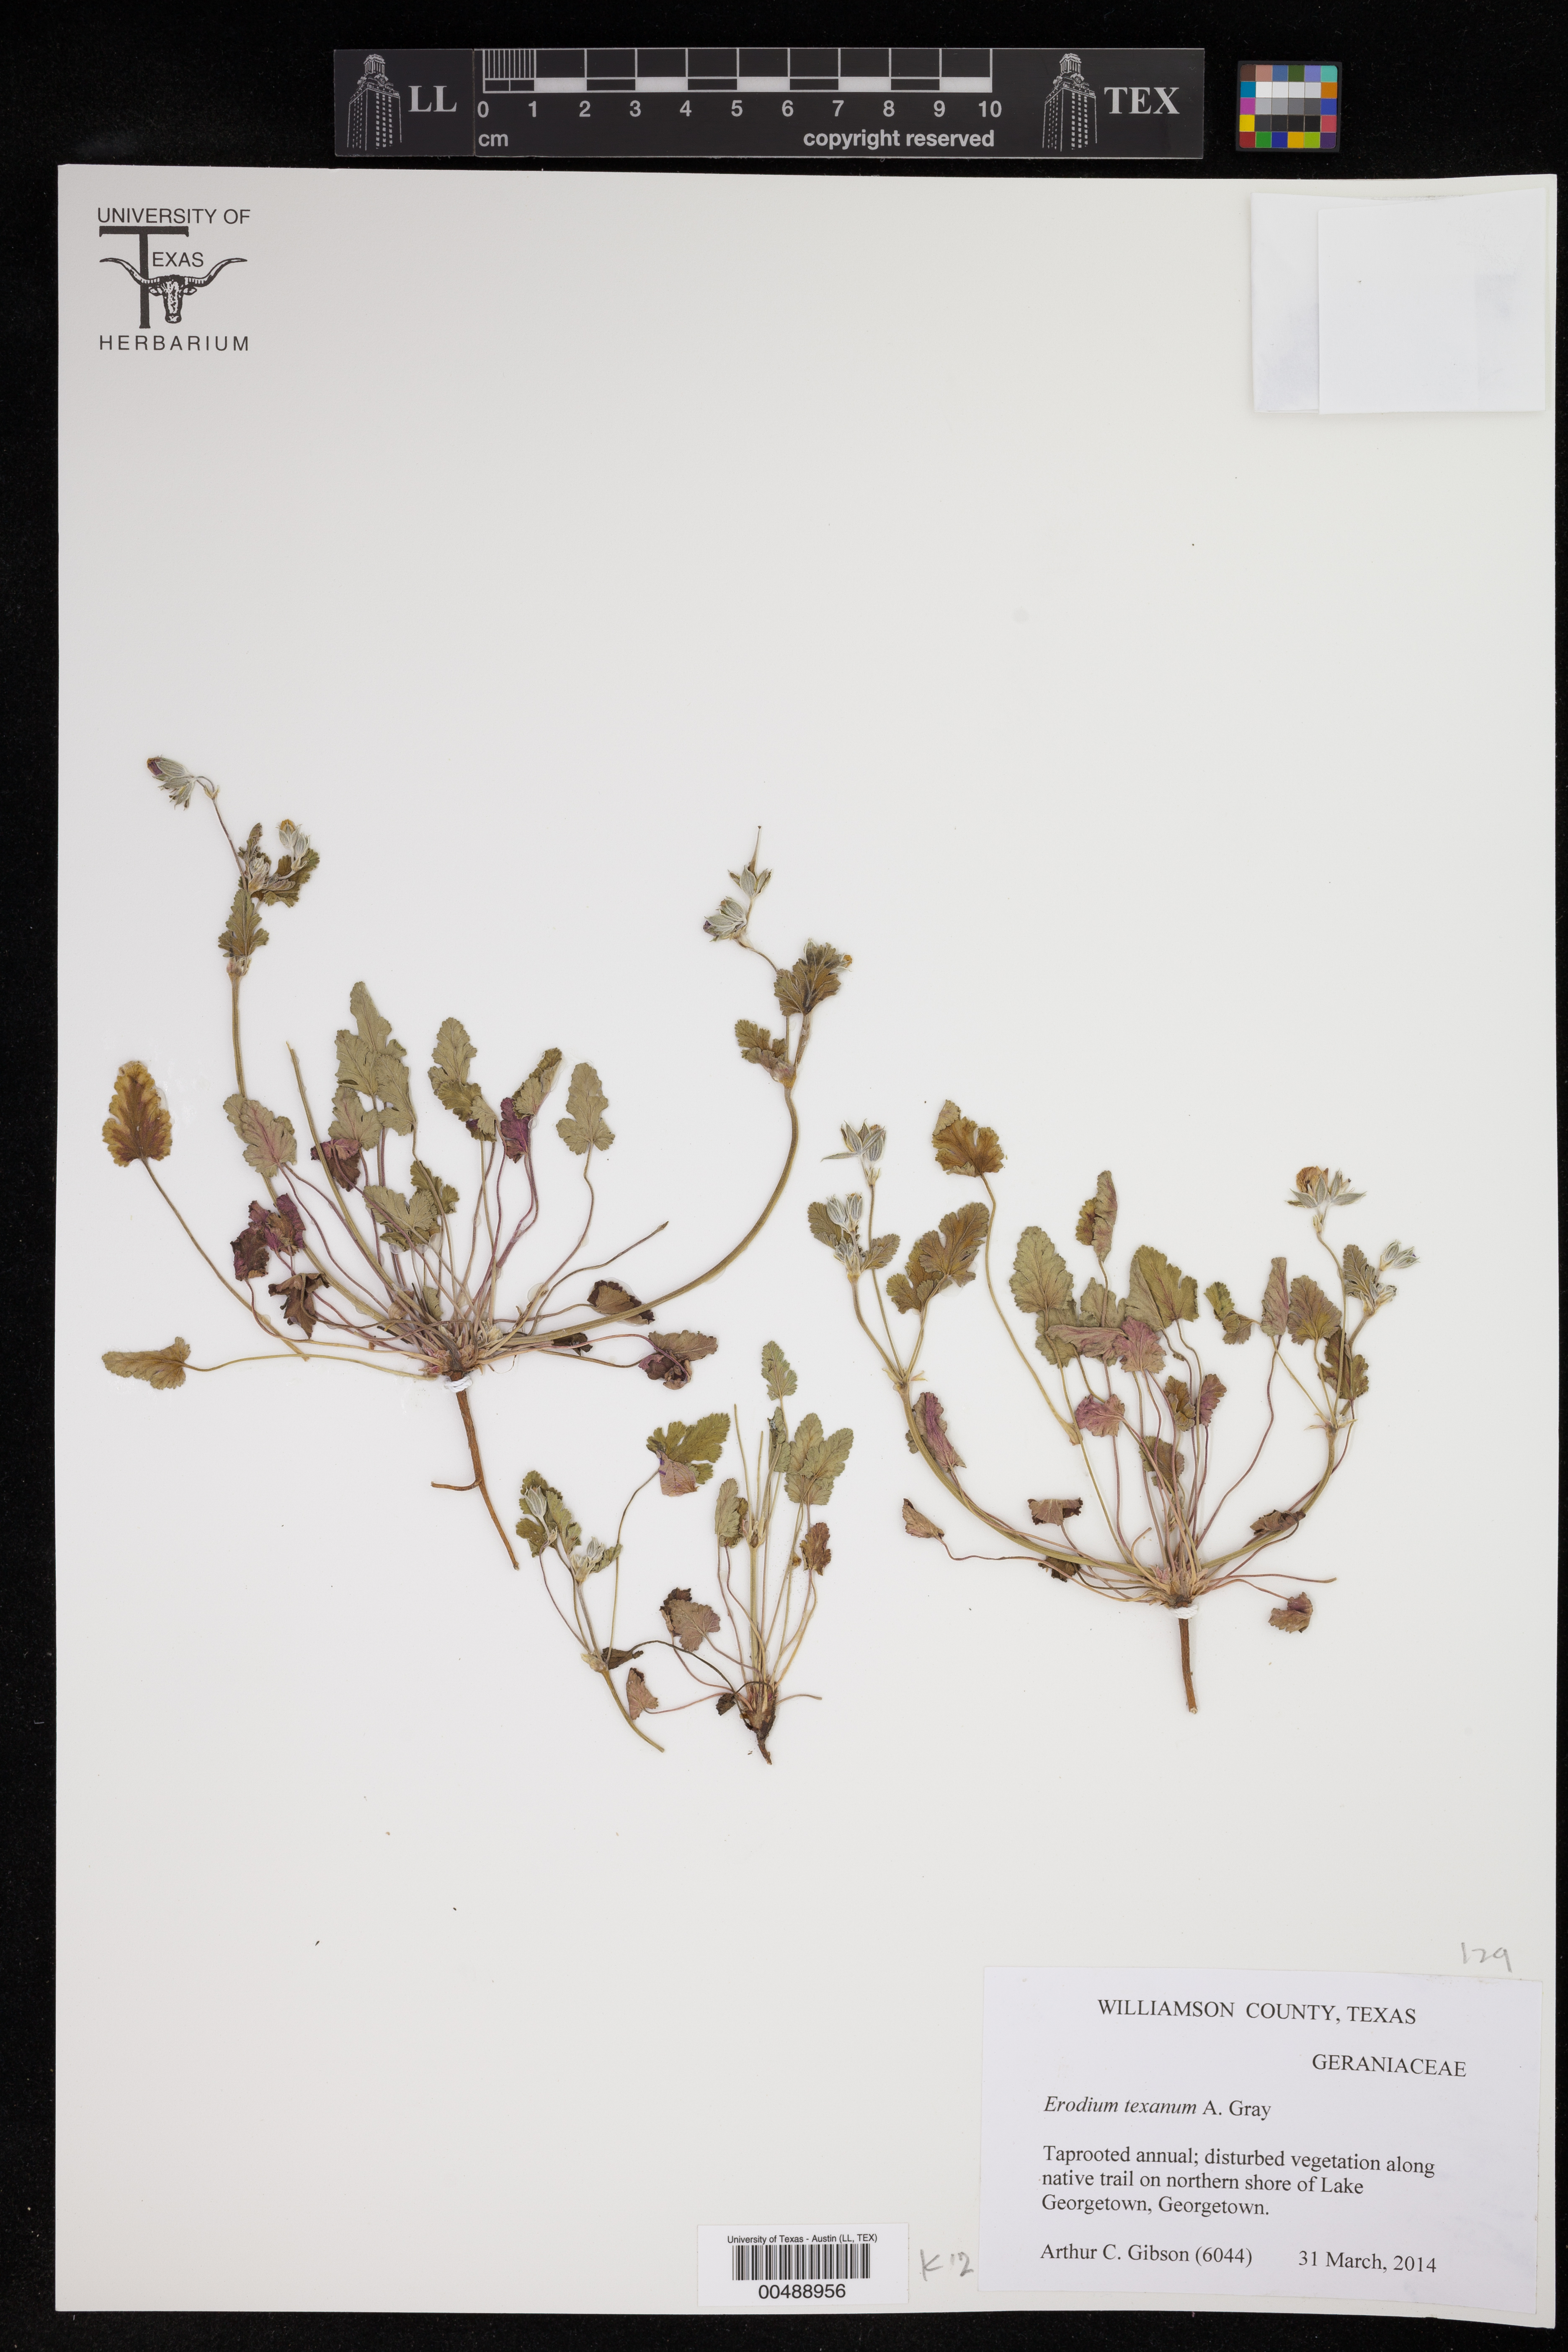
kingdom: Plantae
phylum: Tracheophyta
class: Magnoliopsida
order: Geraniales
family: Geraniaceae
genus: Erodium
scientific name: Erodium texanum
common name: Texas stork's-bill
